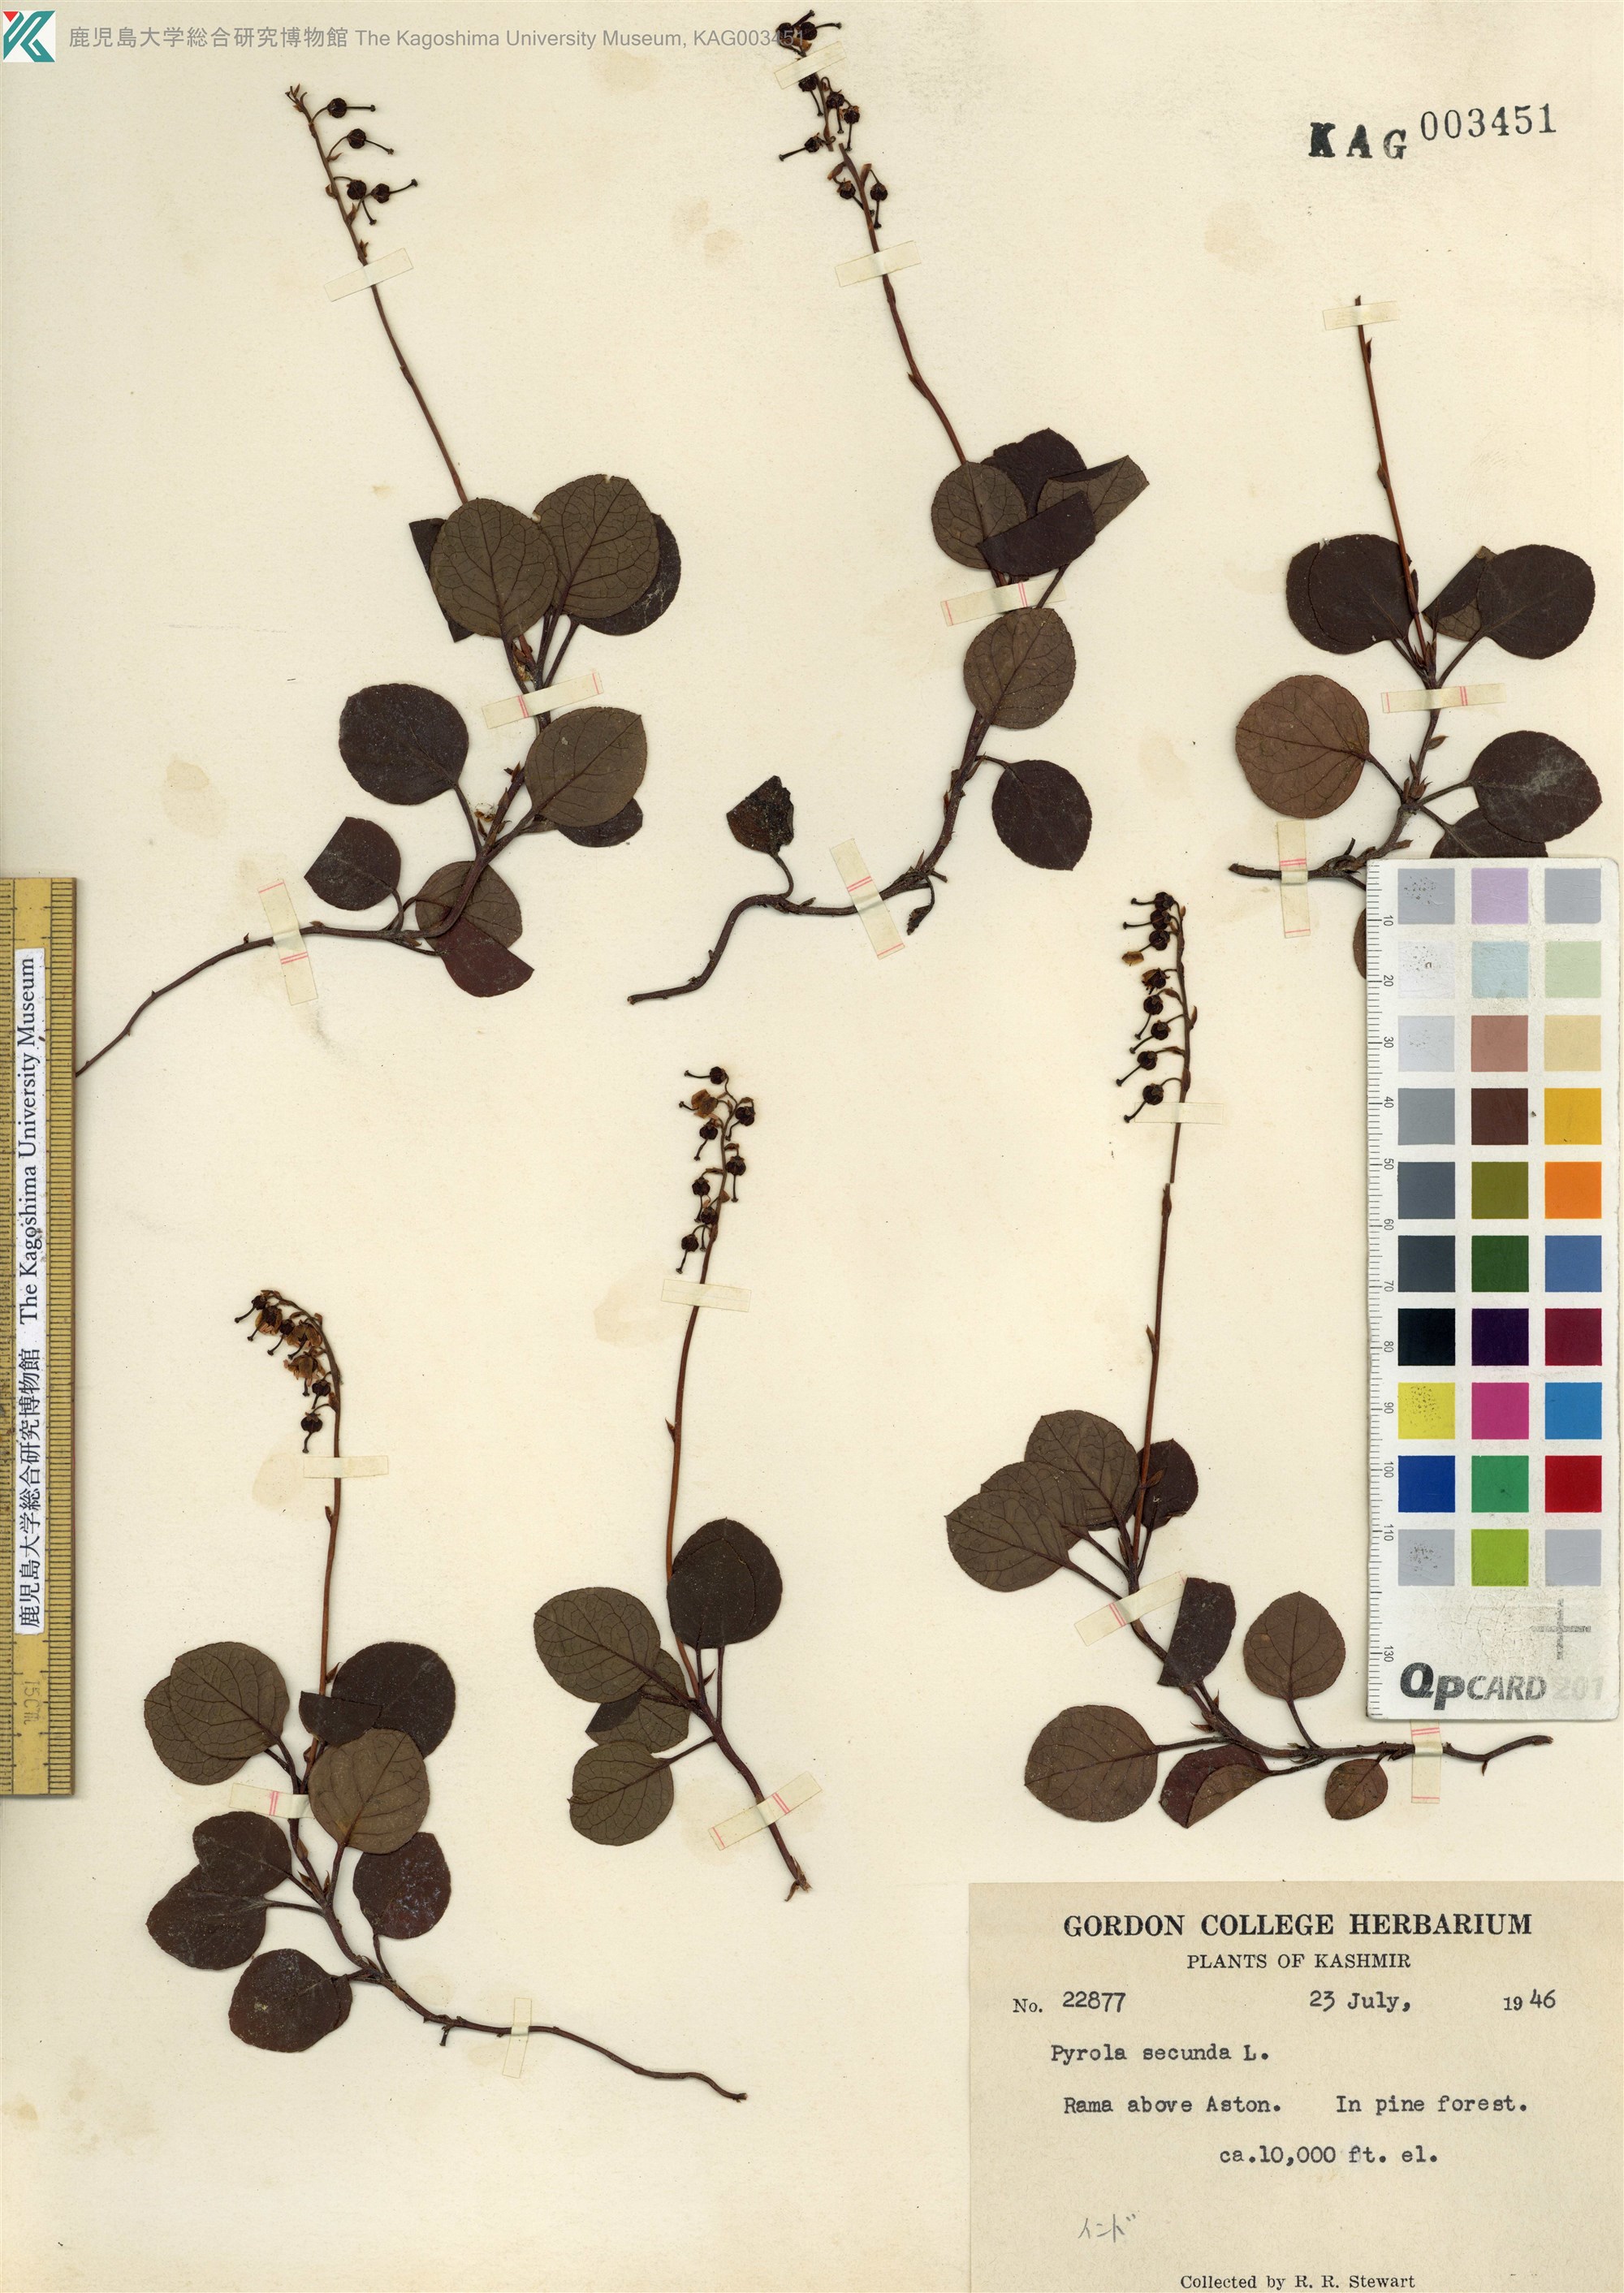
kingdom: Plantae
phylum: Tracheophyta
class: Magnoliopsida
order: Ericales
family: Ericaceae
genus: Orthilia
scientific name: Orthilia secunda
